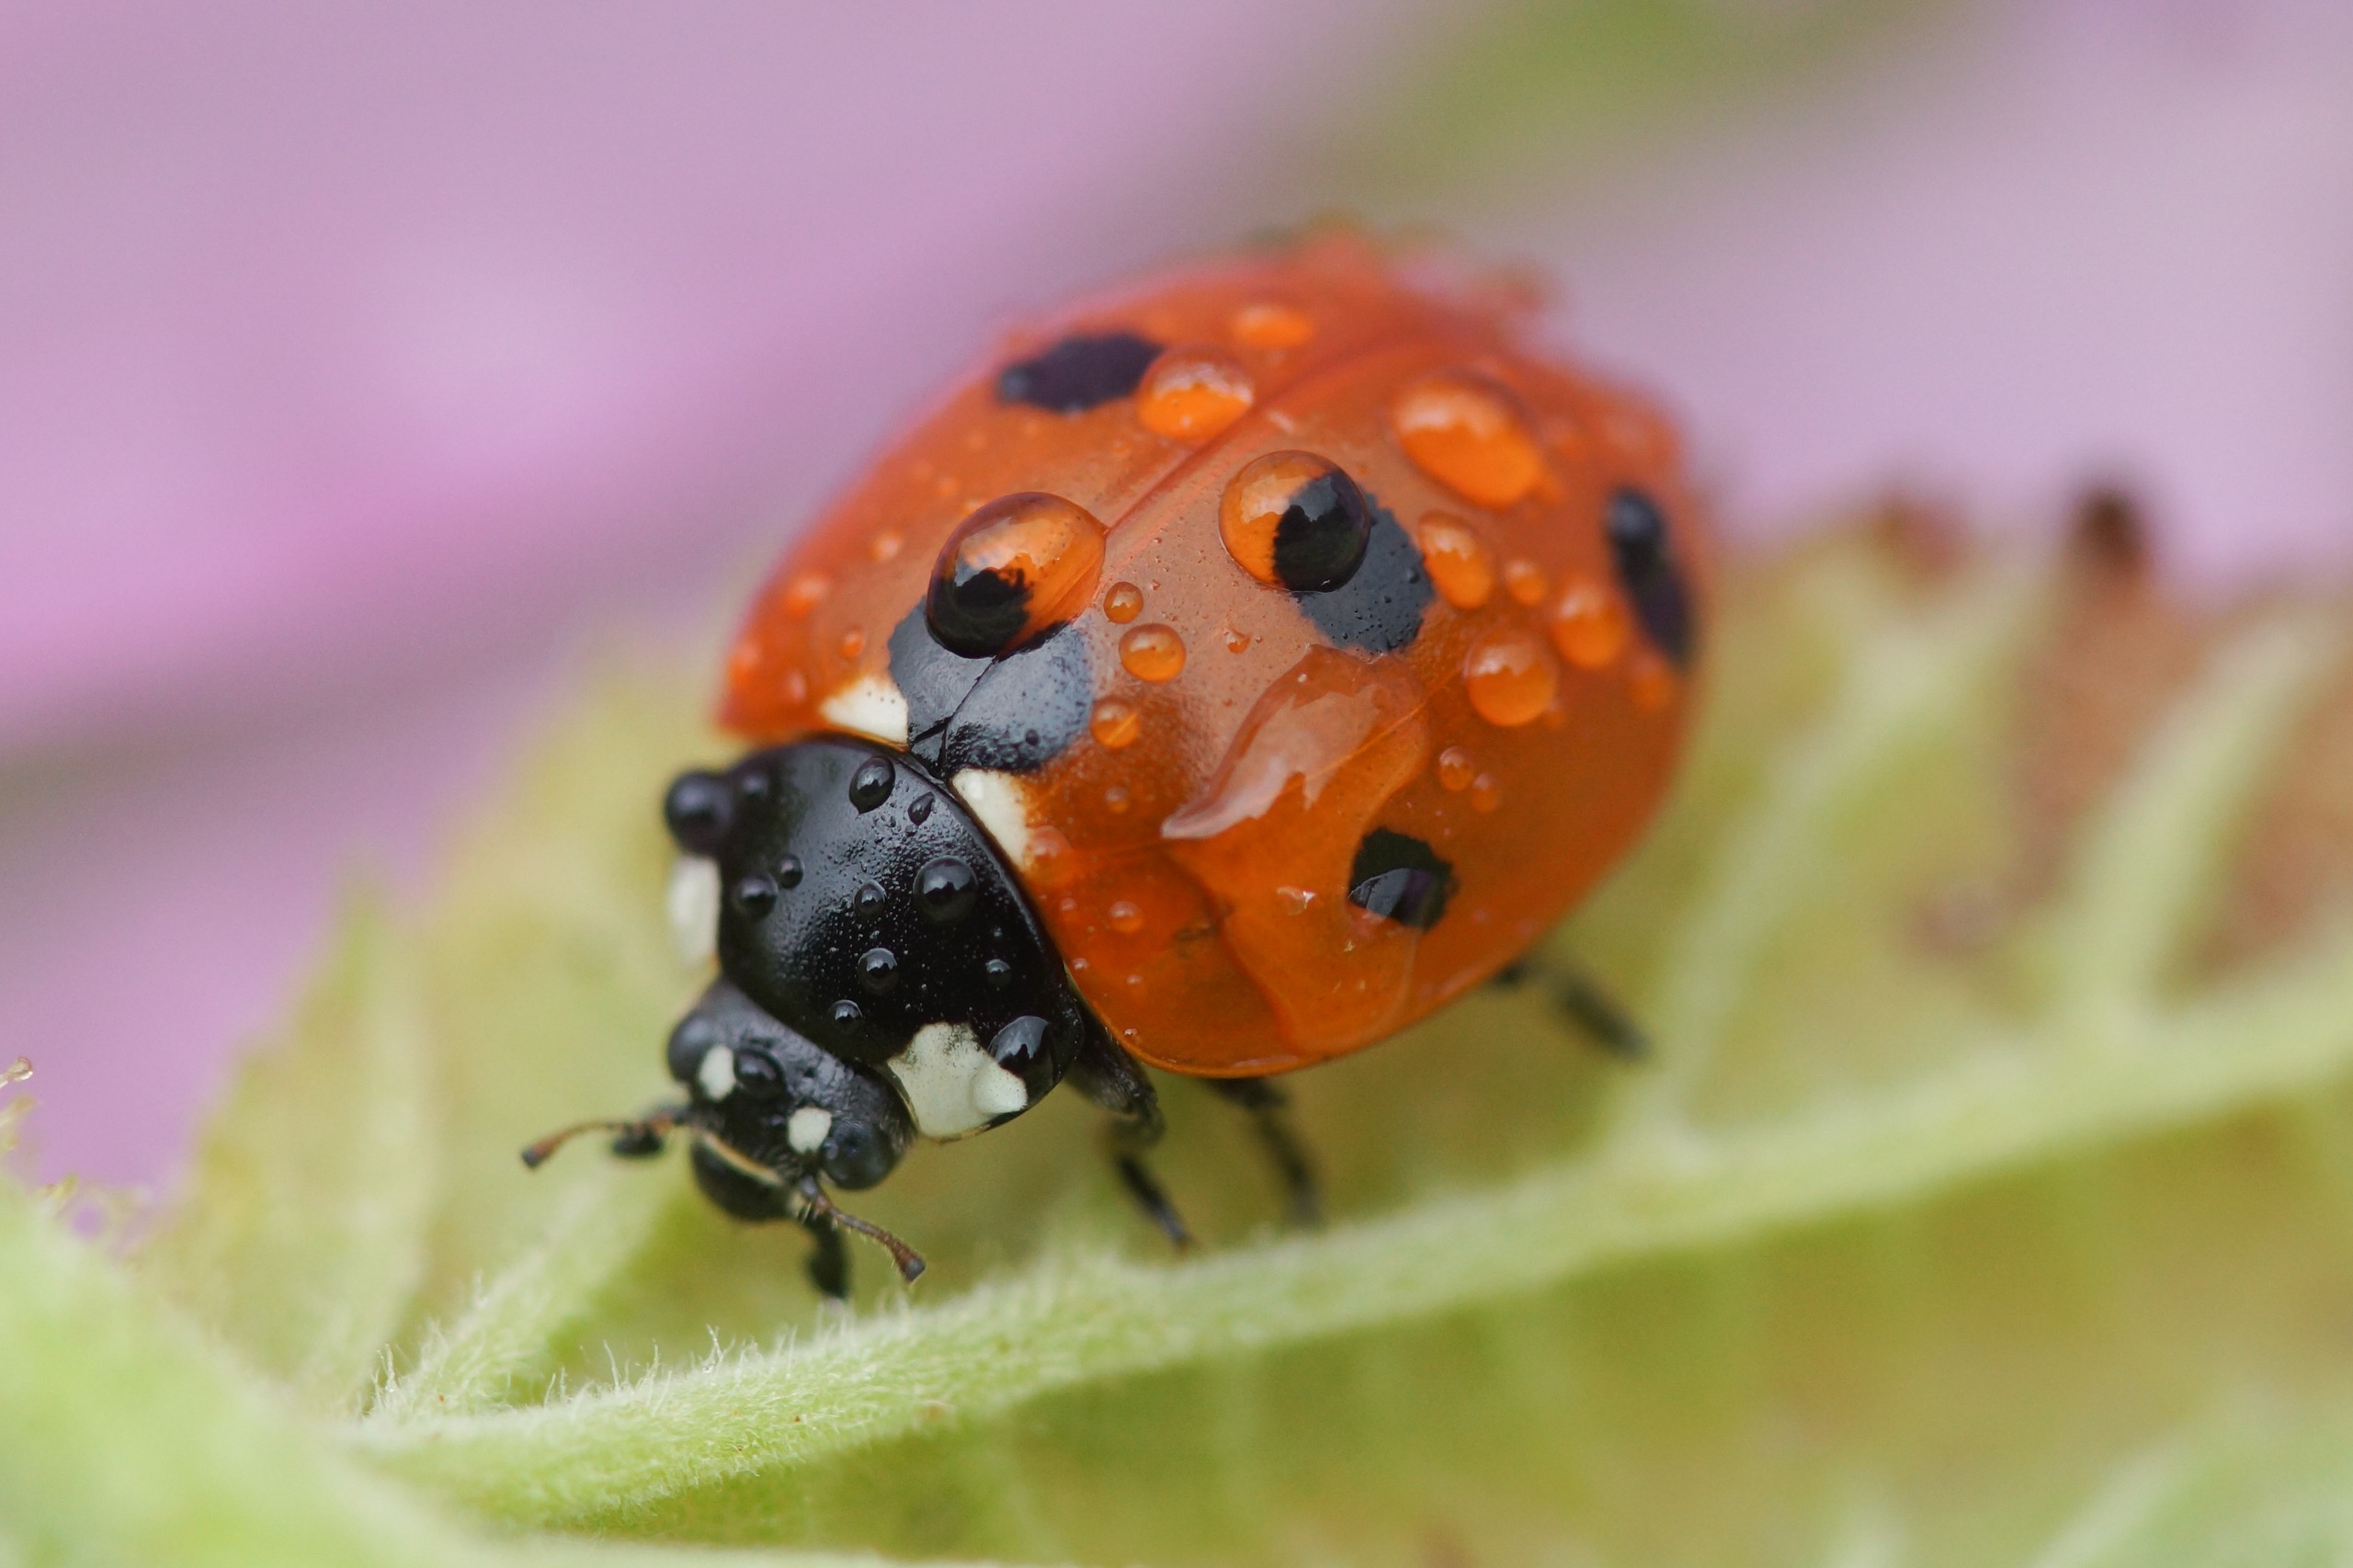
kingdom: Animalia
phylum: Arthropoda
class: Insecta
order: Coleoptera
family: Coccinellidae
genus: Coccinella
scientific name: Coccinella septempunctata
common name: Syvplettet mariehøne
